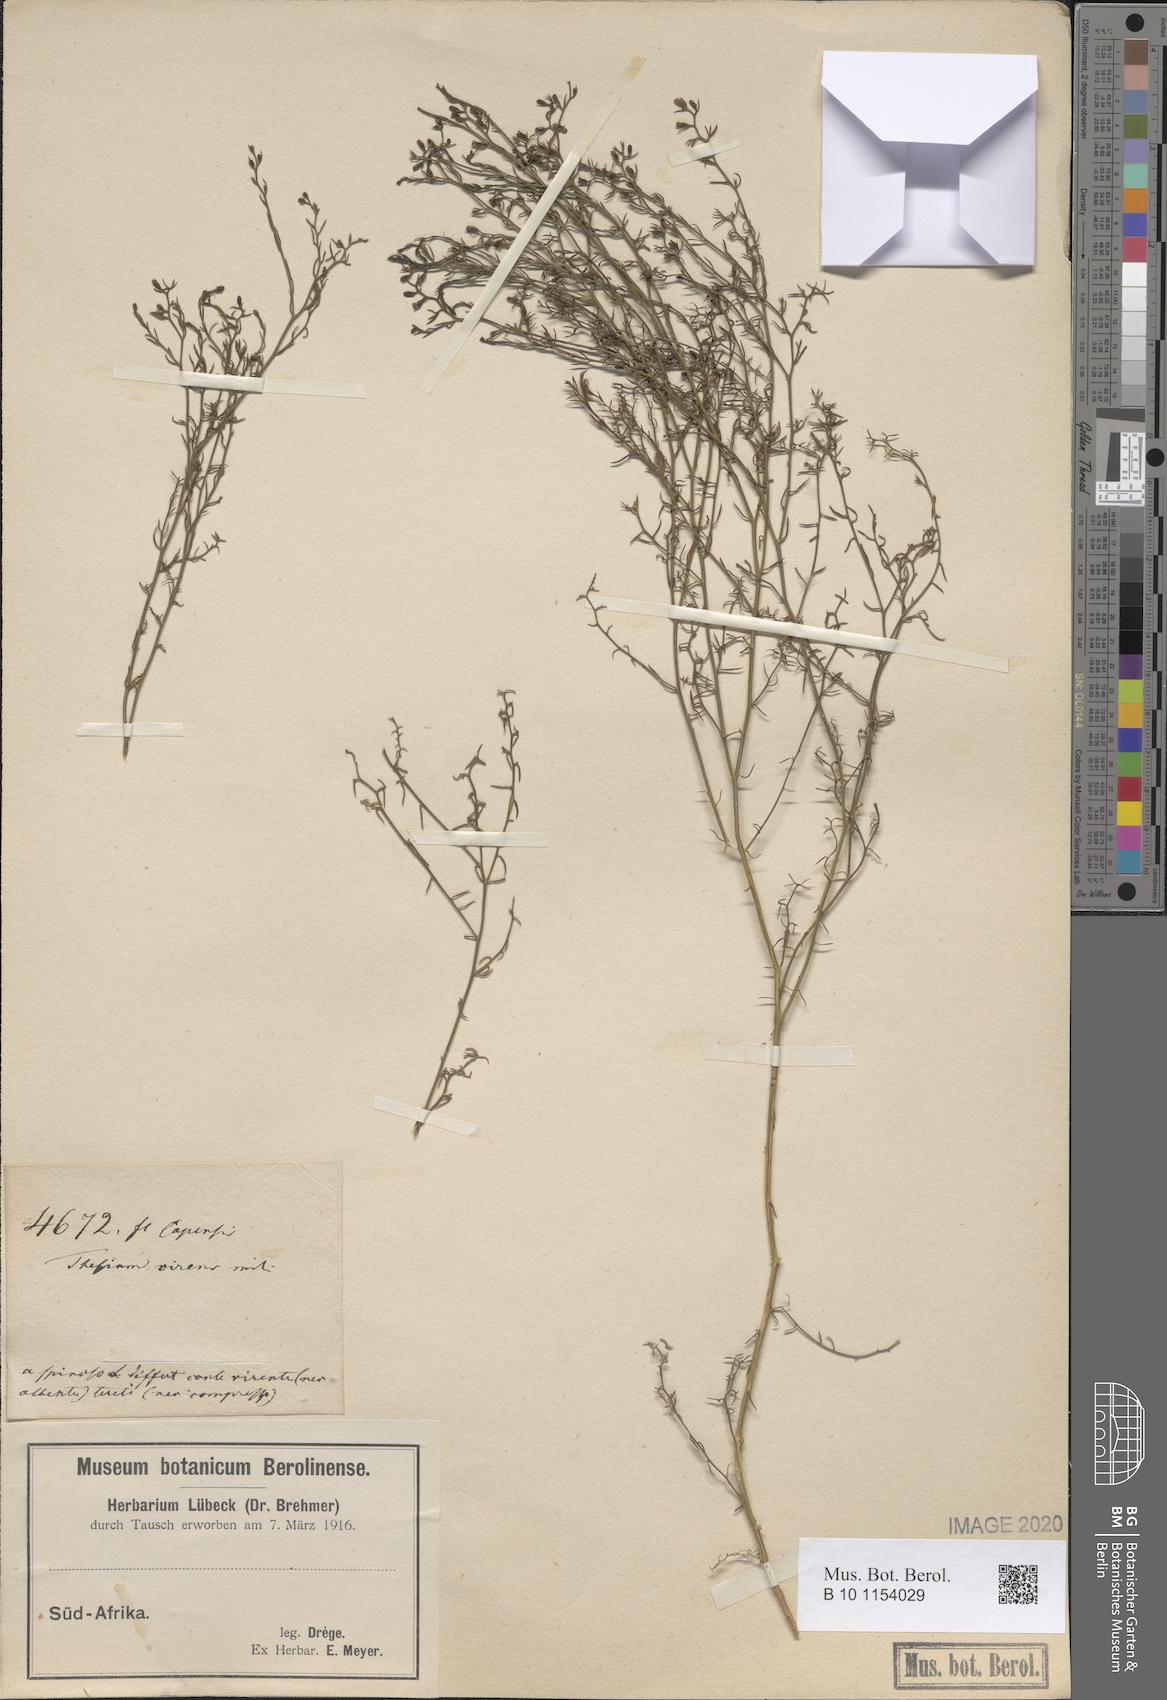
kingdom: Plantae
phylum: Tracheophyta
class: Magnoliopsida
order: Santalales
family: Thesiaceae
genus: Thesium
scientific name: Thesium virens
